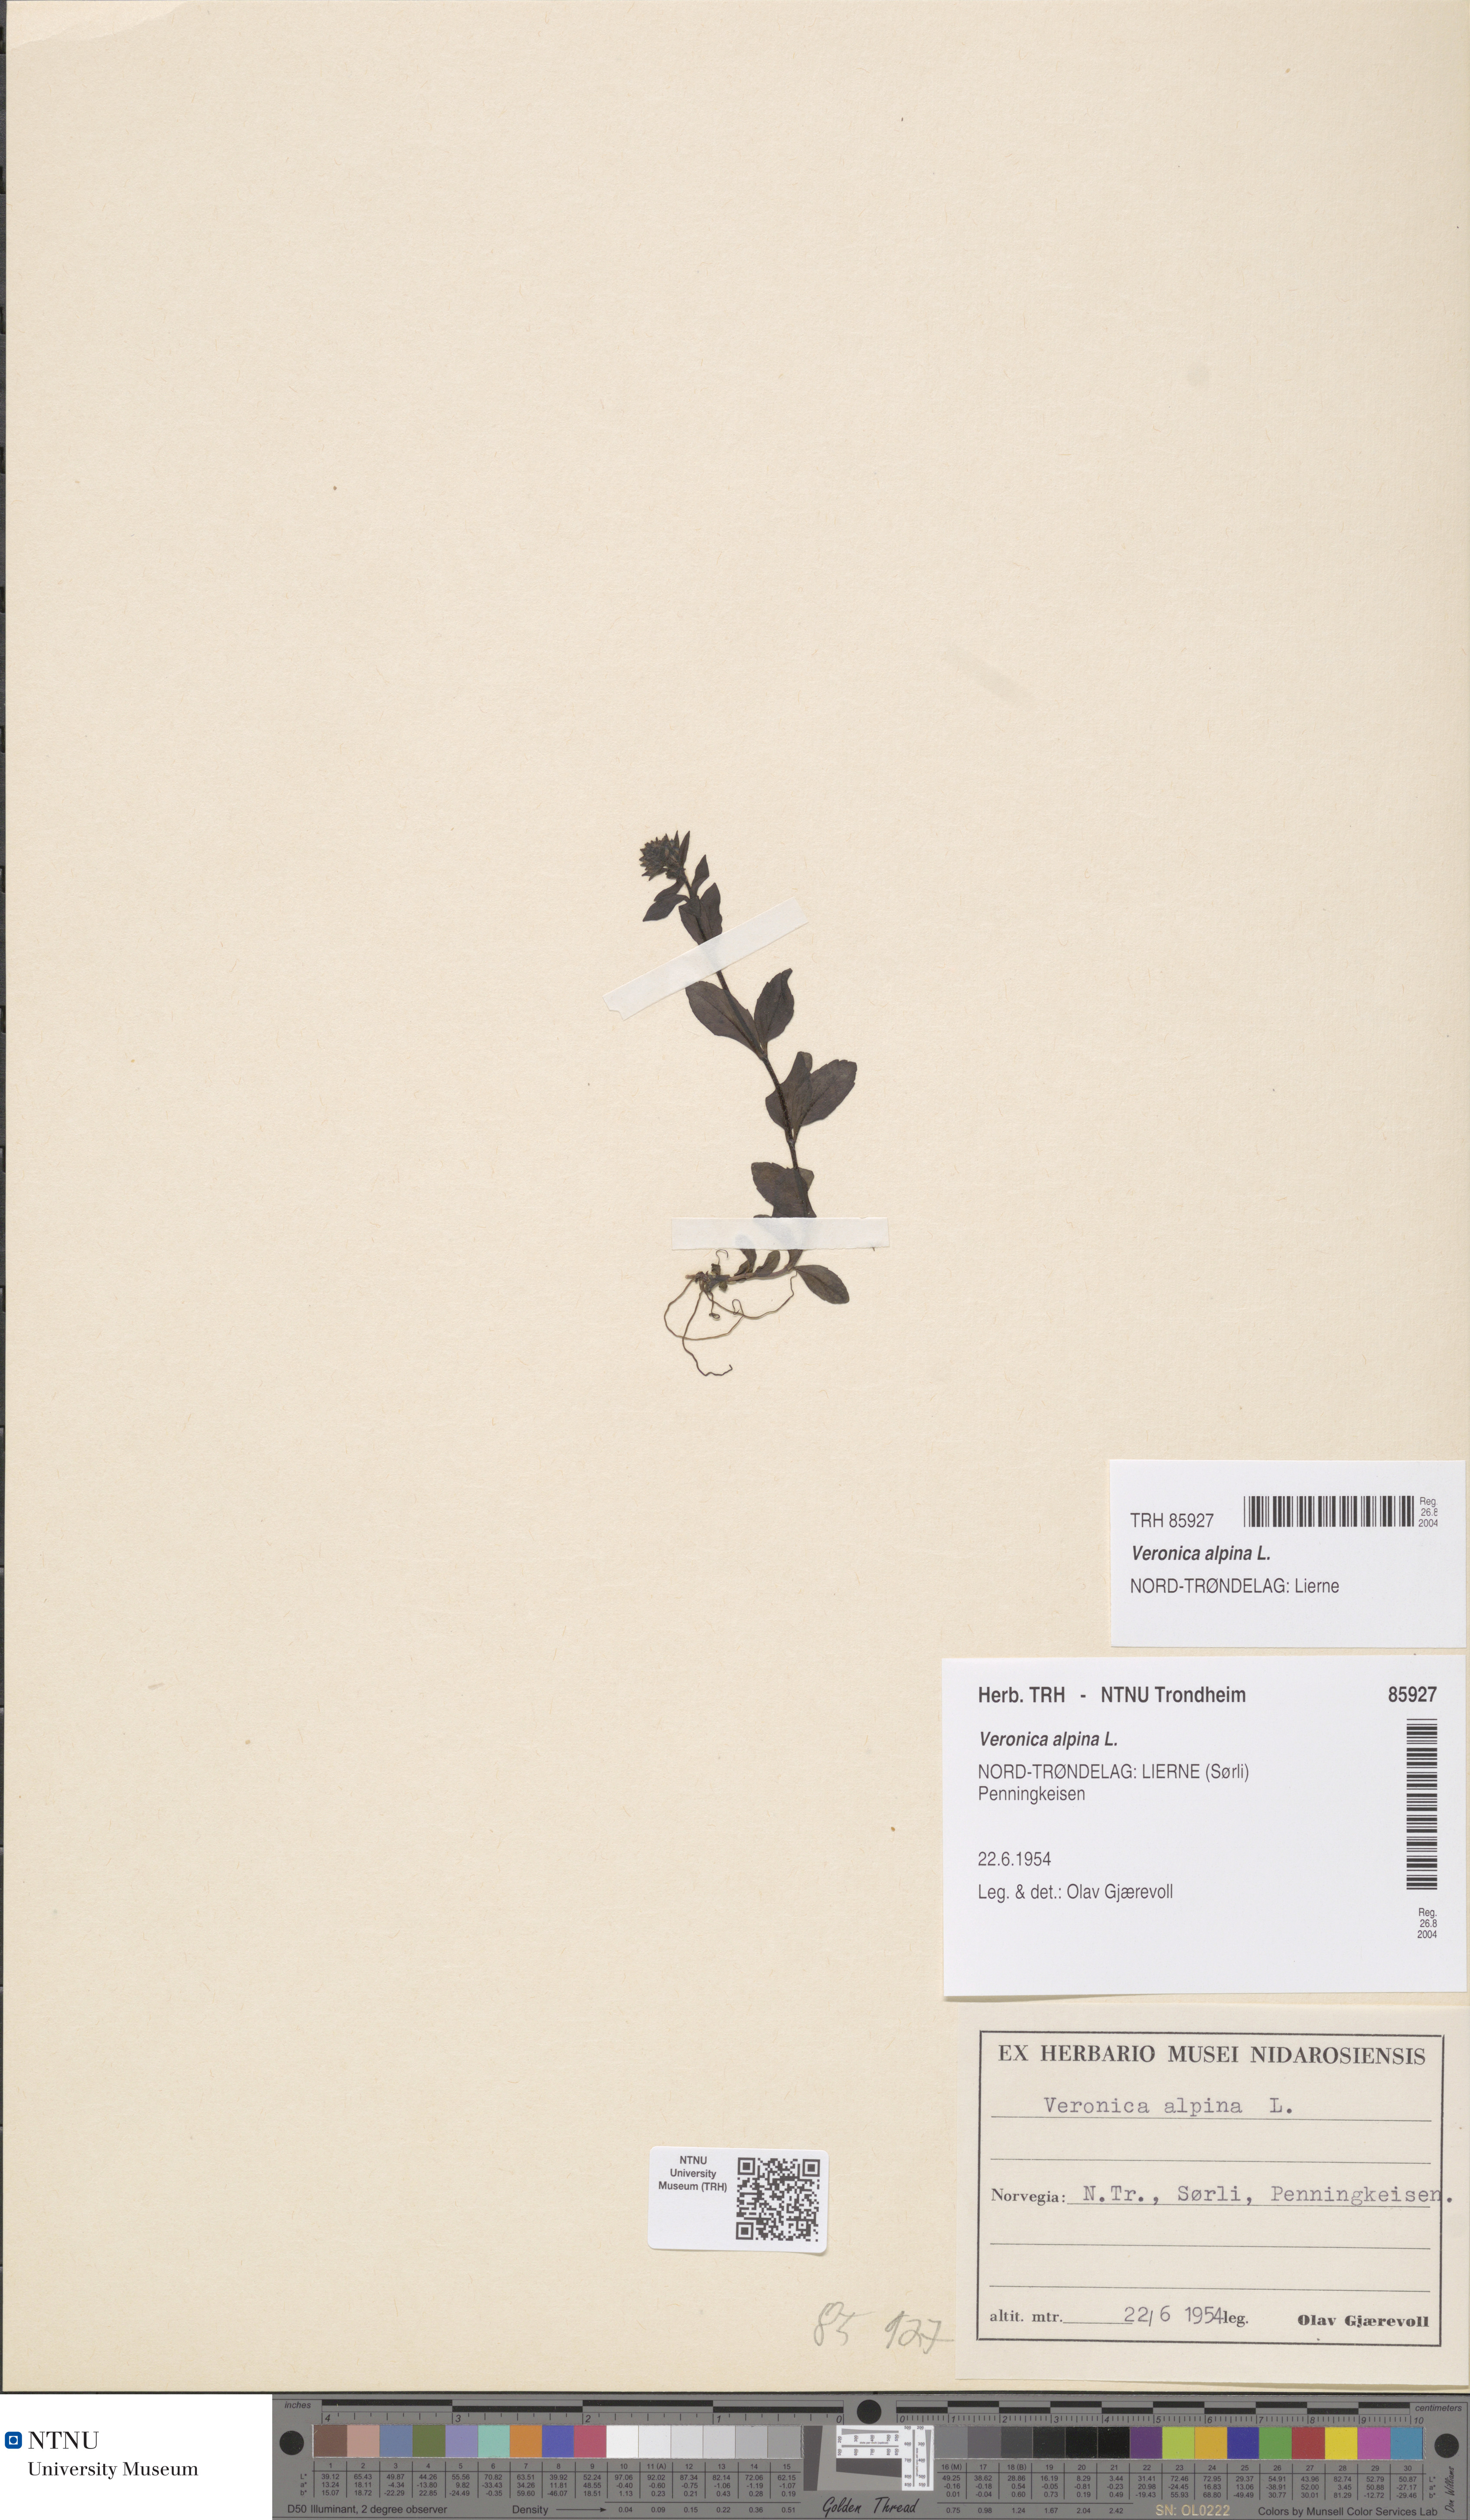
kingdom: Plantae
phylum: Tracheophyta
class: Magnoliopsida
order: Lamiales
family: Plantaginaceae
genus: Veronica
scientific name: Veronica alpina
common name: Alpine speedwell
